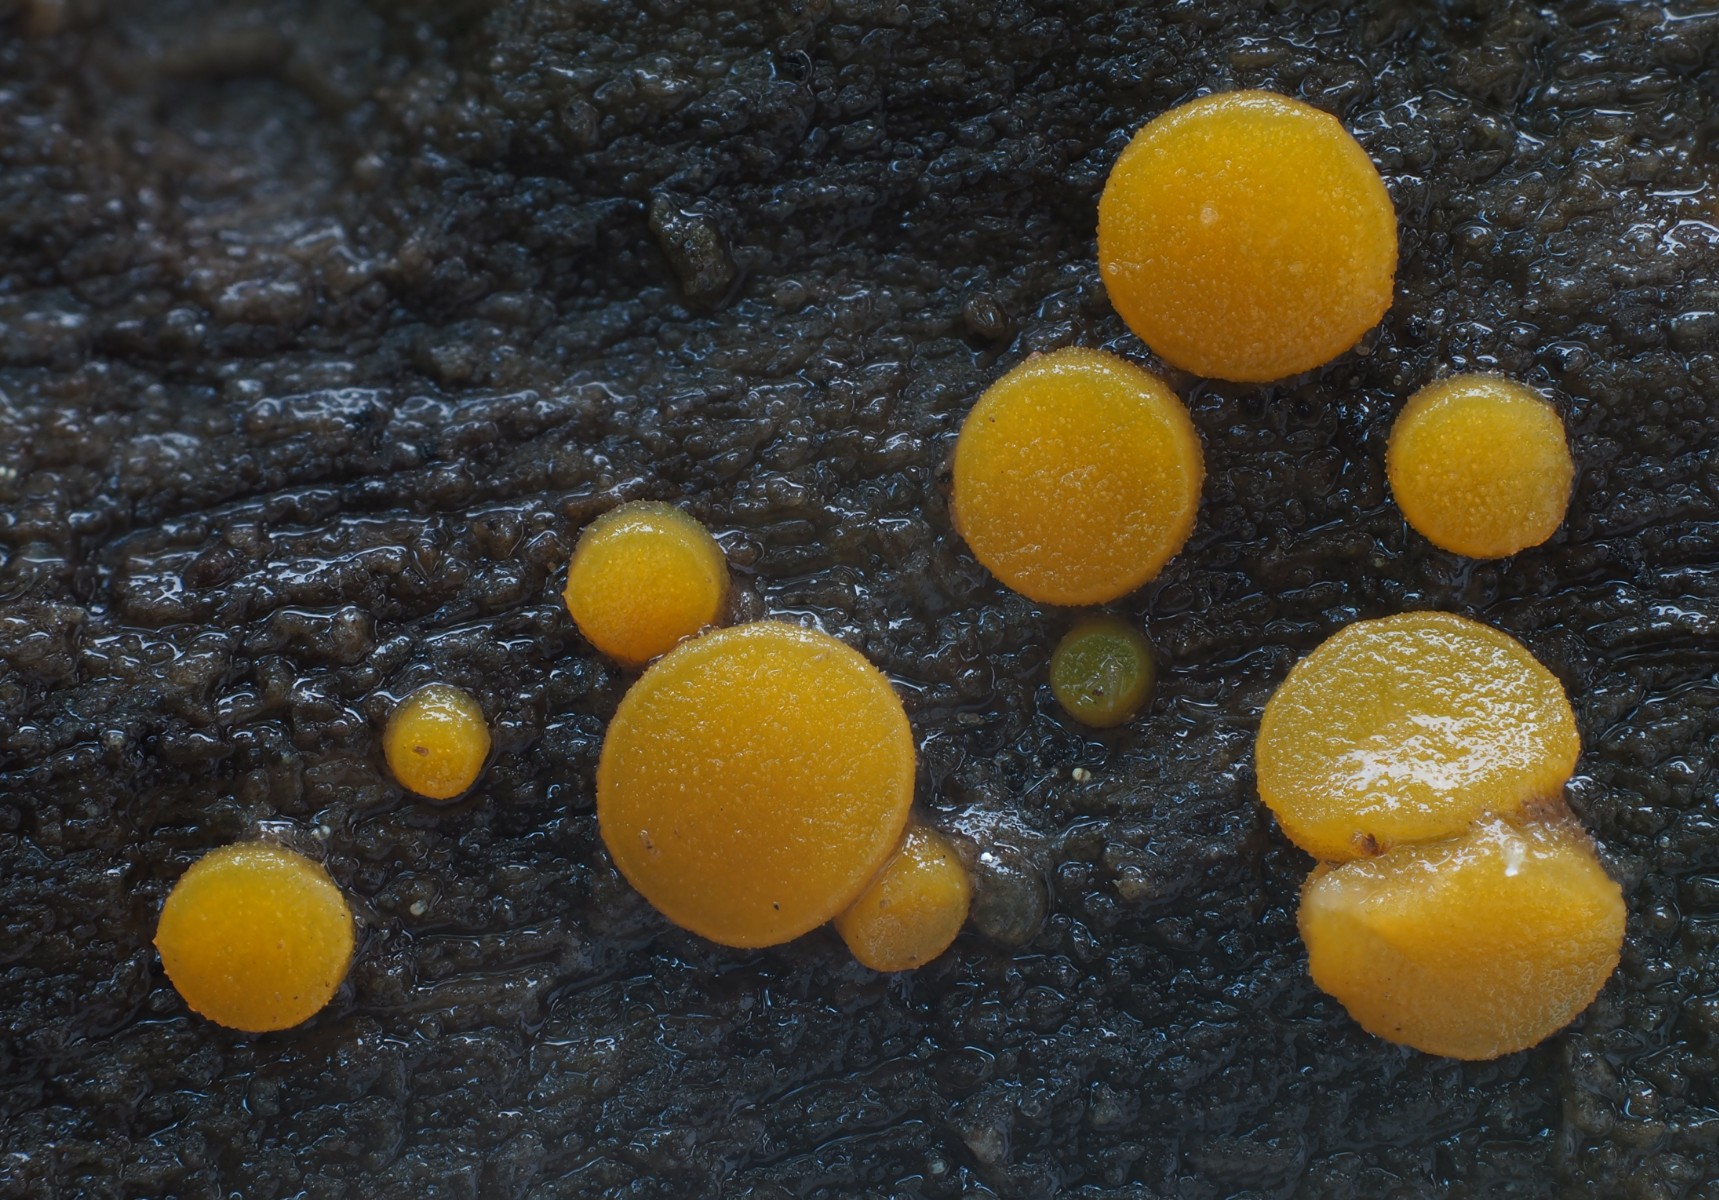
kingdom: Fungi
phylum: Ascomycota
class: Pezizomycetes
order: Pezizales
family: Pyronemataceae
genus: Miladina
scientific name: Miladina lecithina
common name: vandbæger
